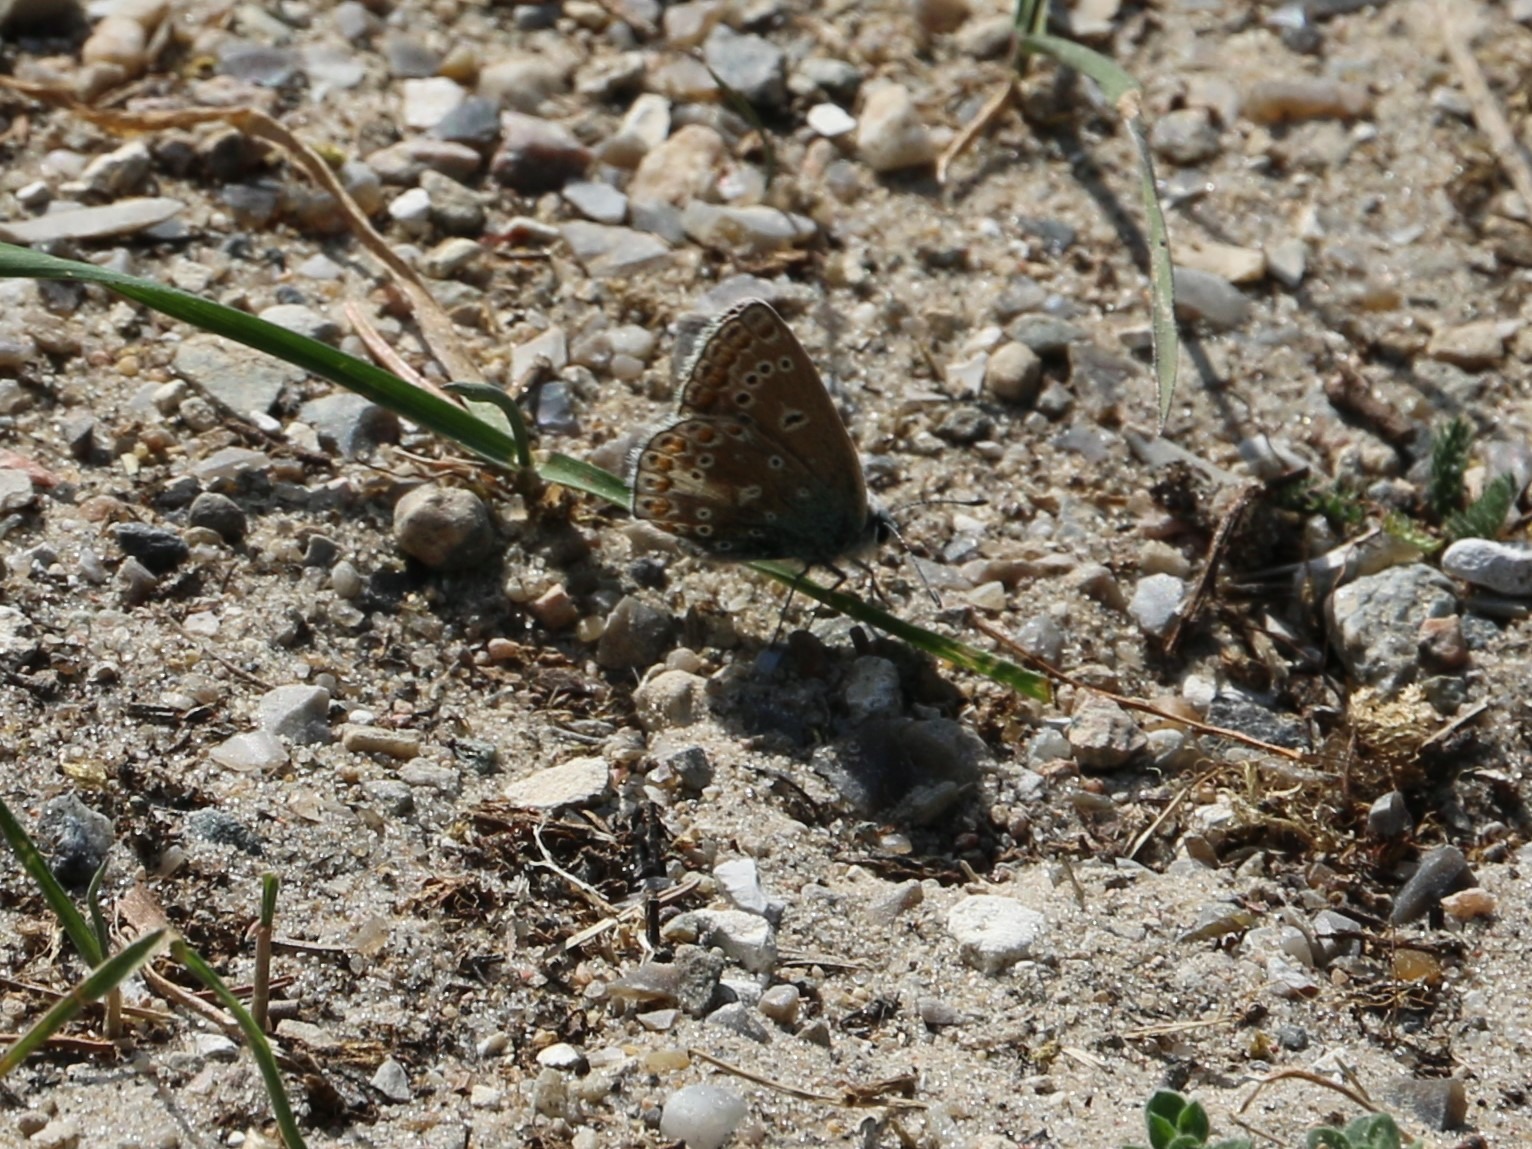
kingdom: Animalia
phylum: Arthropoda
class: Insecta
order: Lepidoptera
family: Lycaenidae
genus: Polyommatus
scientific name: Polyommatus icarus
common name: Almindelig blåfugl
